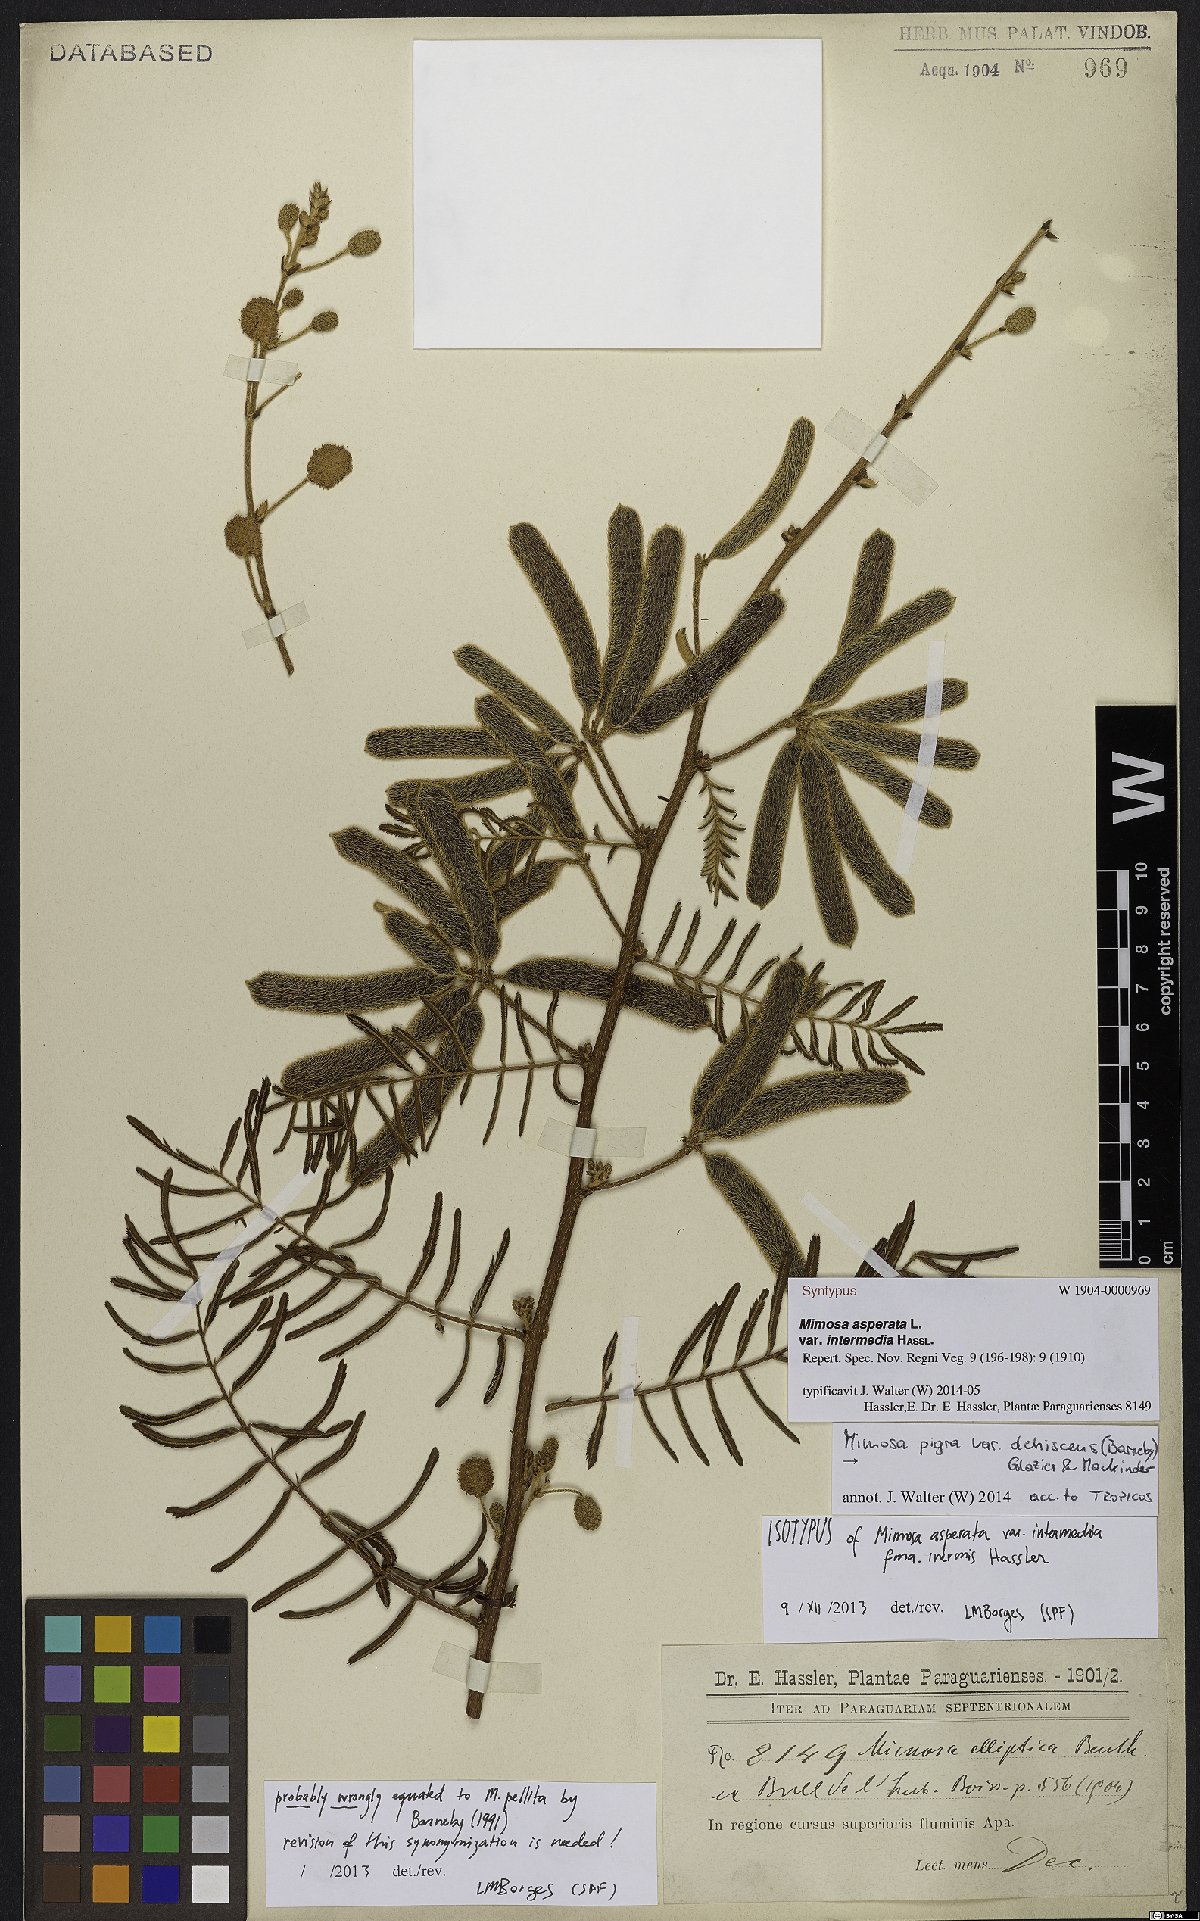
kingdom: Plantae
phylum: Tracheophyta
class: Magnoliopsida
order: Fabales
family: Fabaceae
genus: Mimosa
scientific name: Mimosa pigra
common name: Black mimosa
